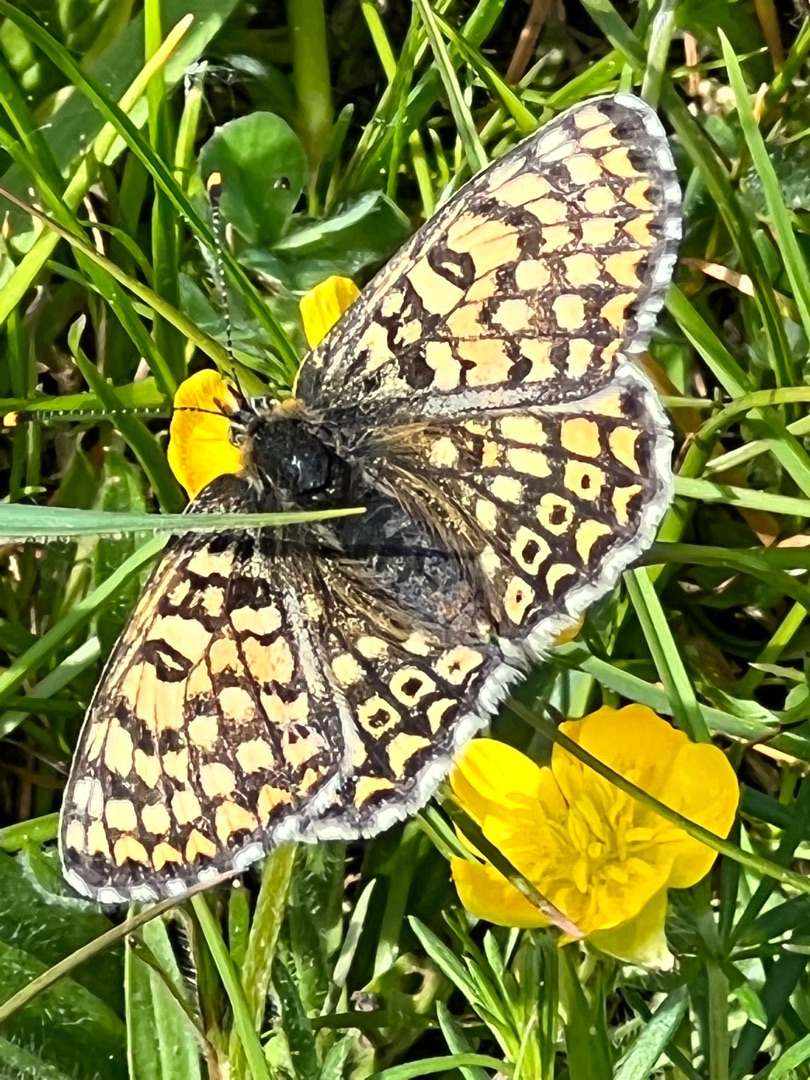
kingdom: Animalia
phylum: Arthropoda
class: Insecta
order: Lepidoptera
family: Nymphalidae
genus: Melitaea
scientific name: Melitaea cinxia
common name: Okkergul pletvinge
